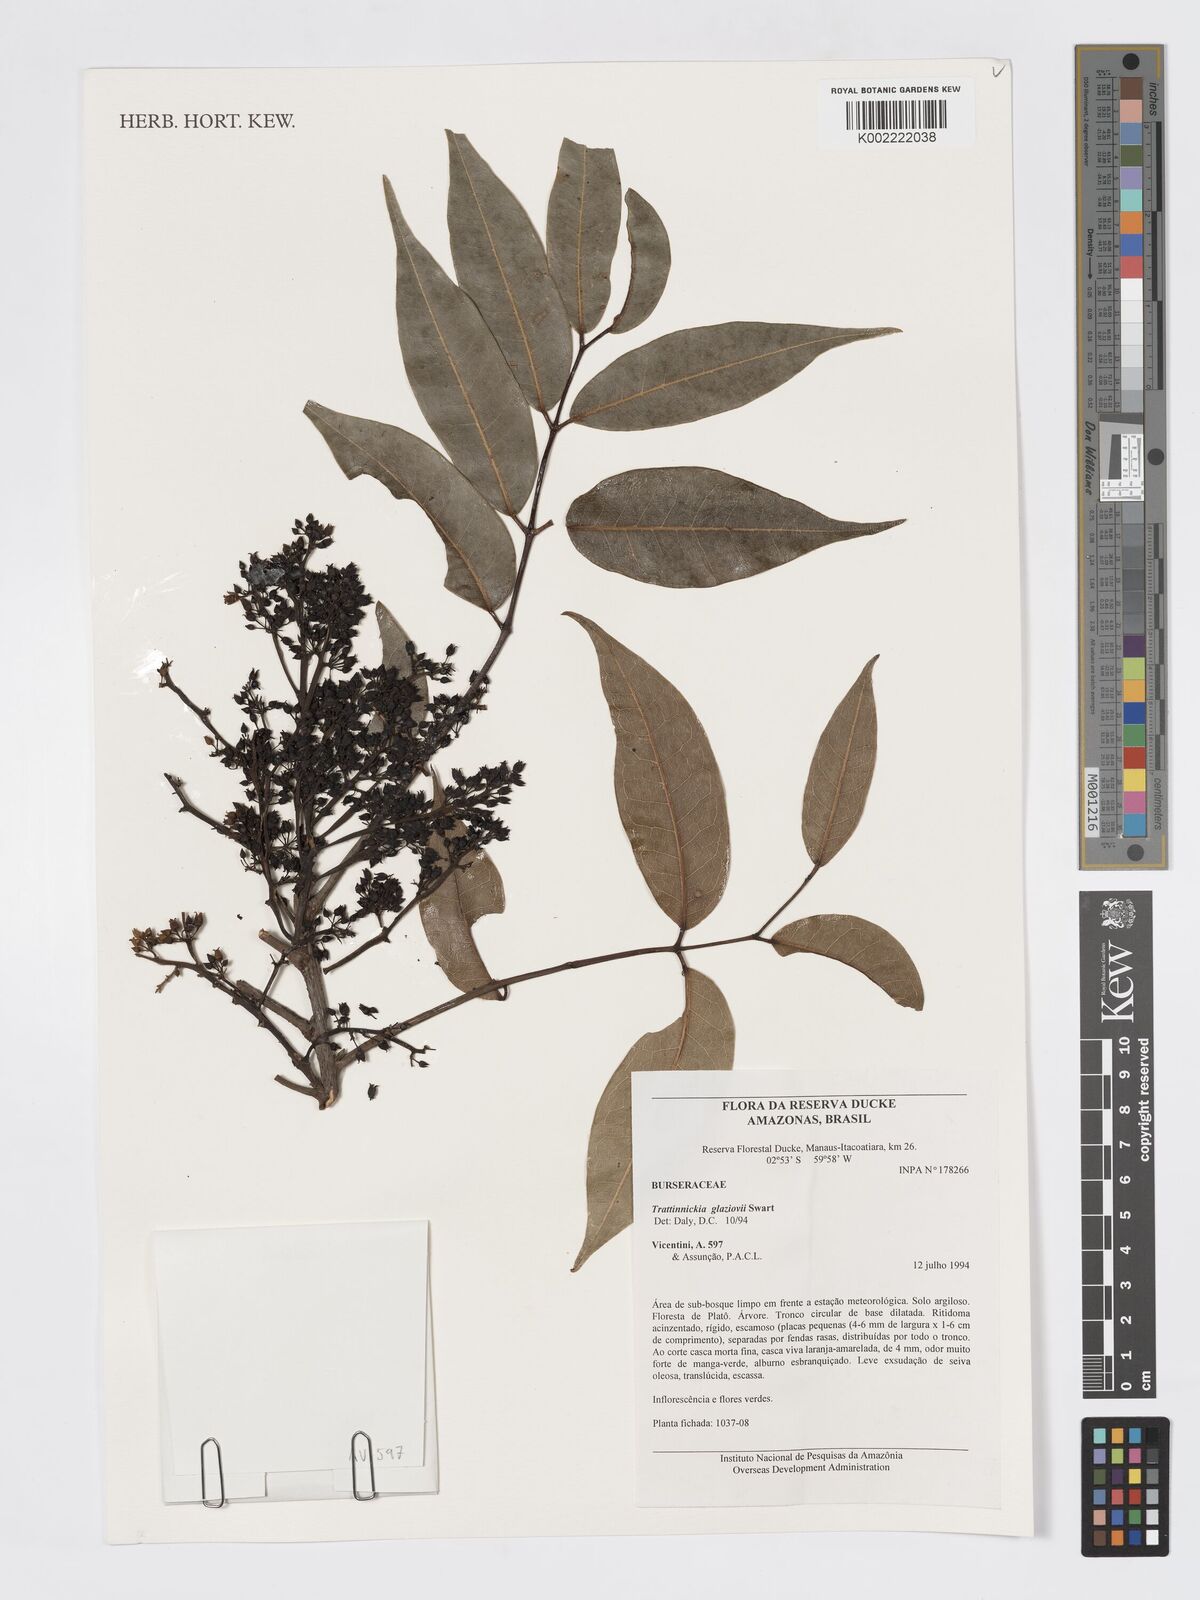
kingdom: Plantae
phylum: Tracheophyta
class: Magnoliopsida
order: Sapindales
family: Burseraceae
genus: Trattinnickia
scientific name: Trattinnickia glaziovii
